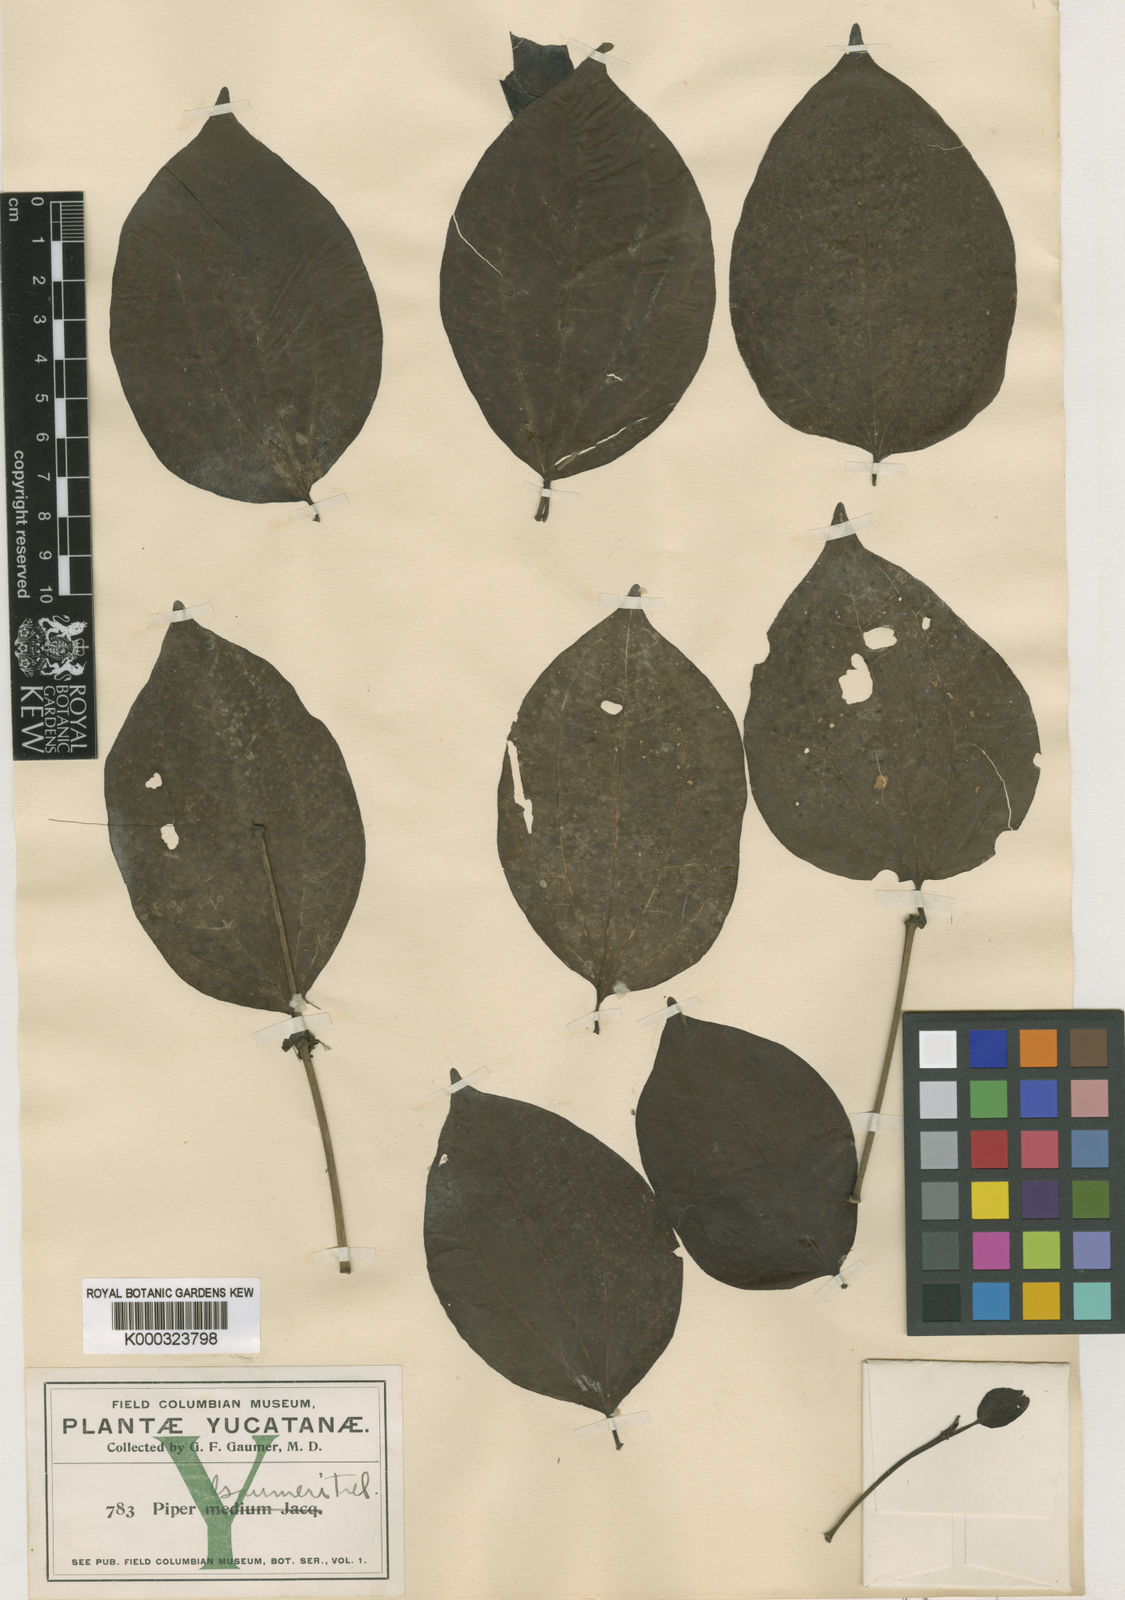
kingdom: Plantae
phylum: Tracheophyta
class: Magnoliopsida
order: Piperales
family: Piperaceae
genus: Piper
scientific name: Piper amalago
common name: Pepper-elder
